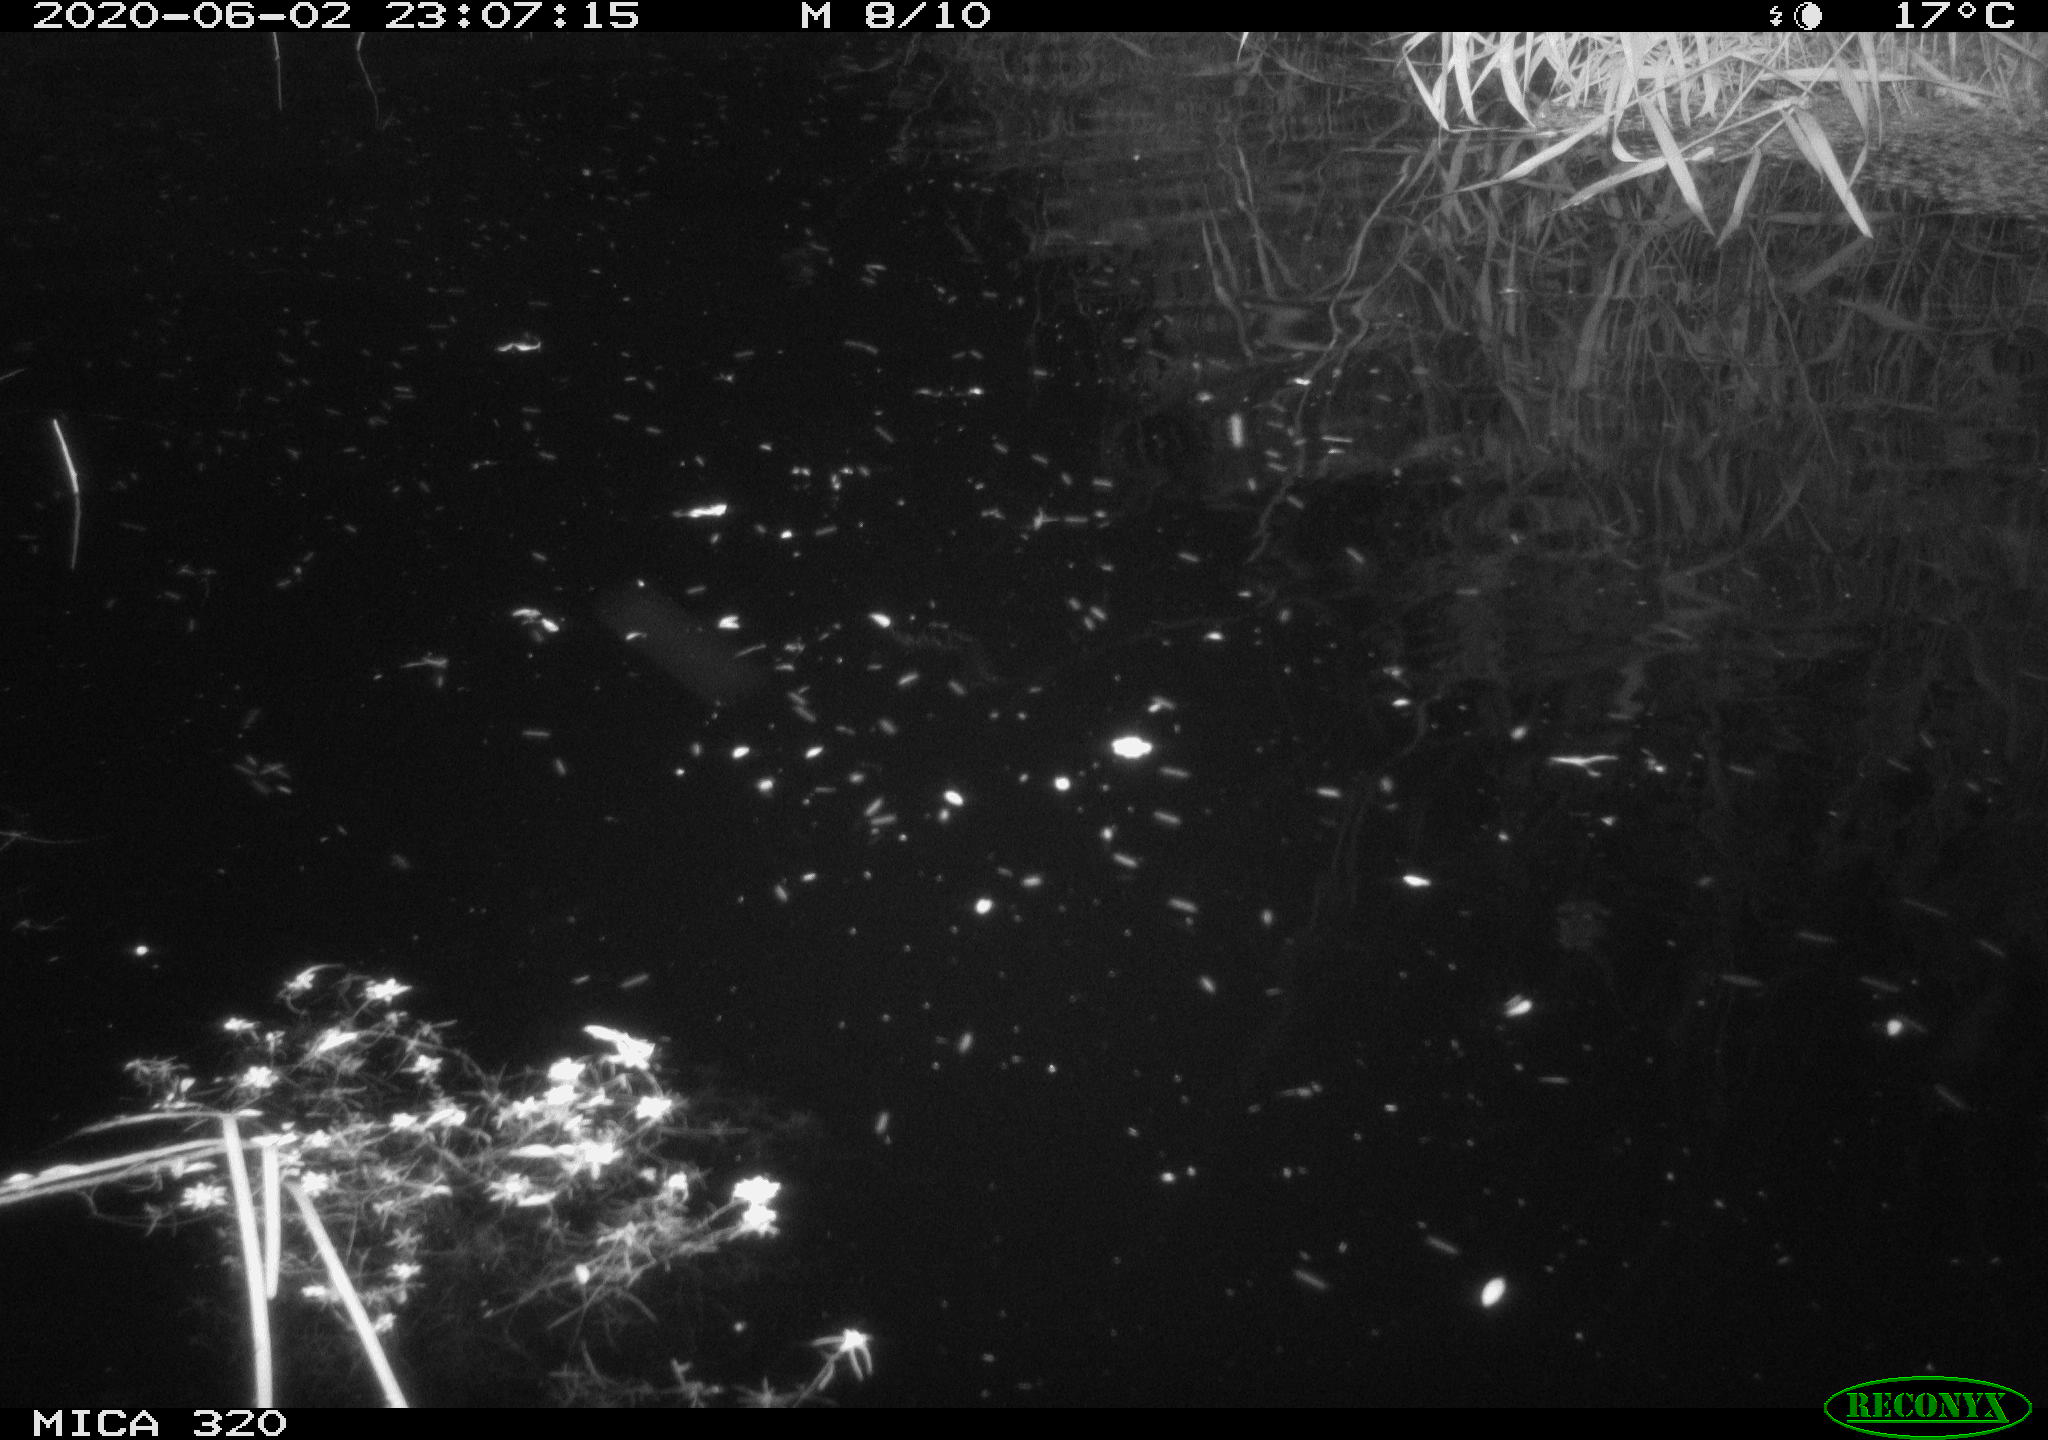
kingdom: Animalia
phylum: Chordata
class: Aves
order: Anseriformes
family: Anatidae
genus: Anas
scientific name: Anas platyrhynchos
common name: Mallard
